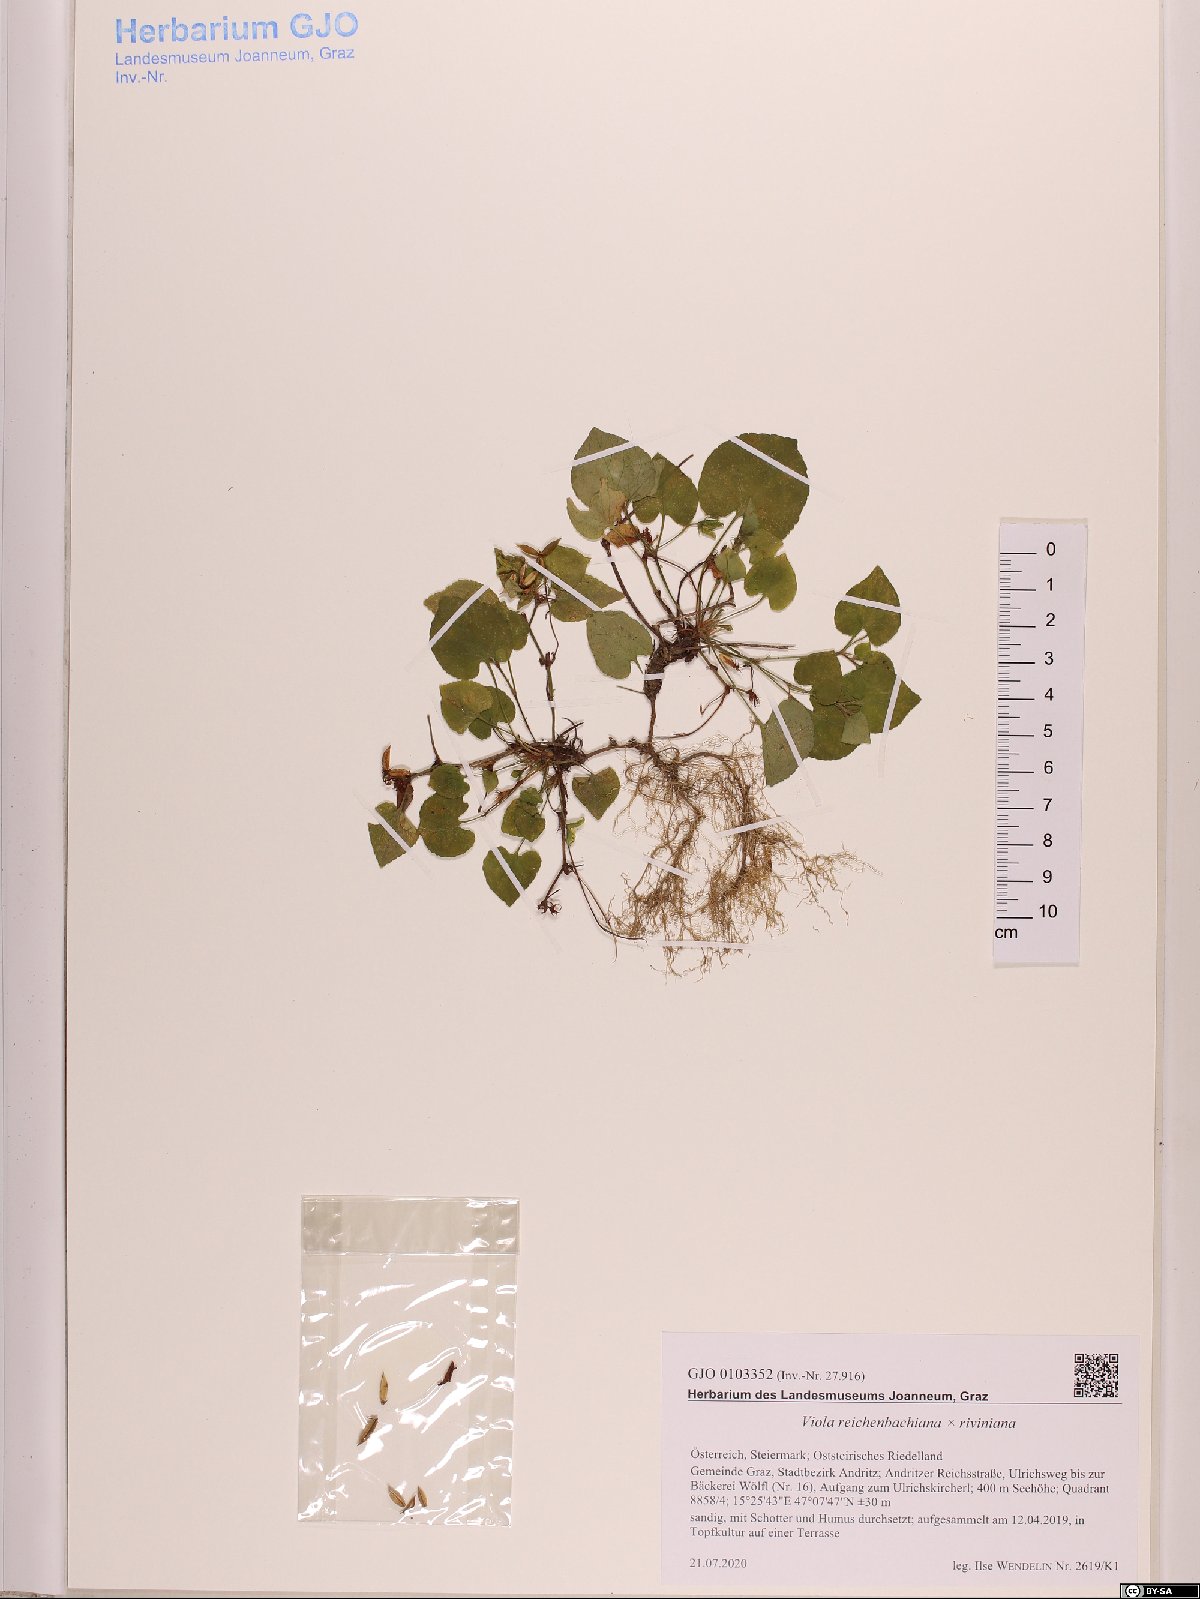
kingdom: Plantae
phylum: Tracheophyta
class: Magnoliopsida
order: Malpighiales
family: Violaceae
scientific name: Violaceae
